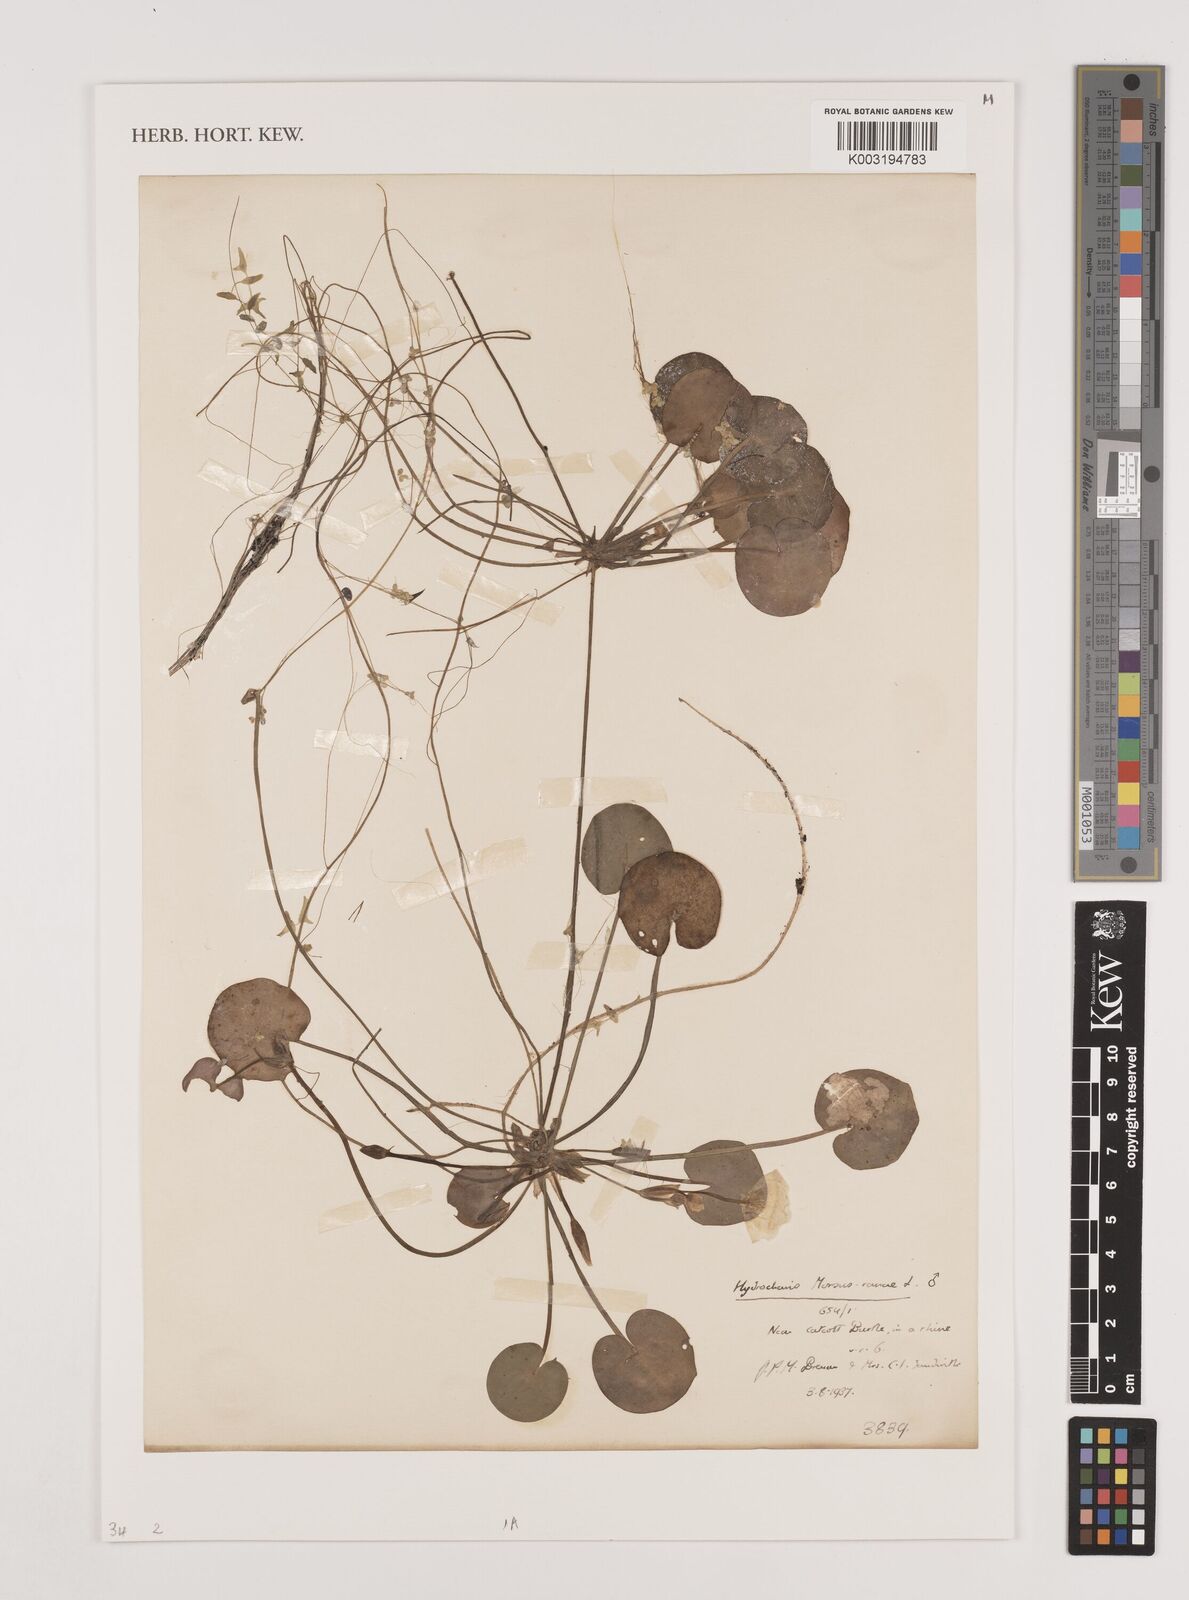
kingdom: Plantae
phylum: Tracheophyta
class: Liliopsida
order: Alismatales
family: Hydrocharitaceae
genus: Hydrocharis
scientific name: Hydrocharis morsus-ranae
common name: Frogbit
